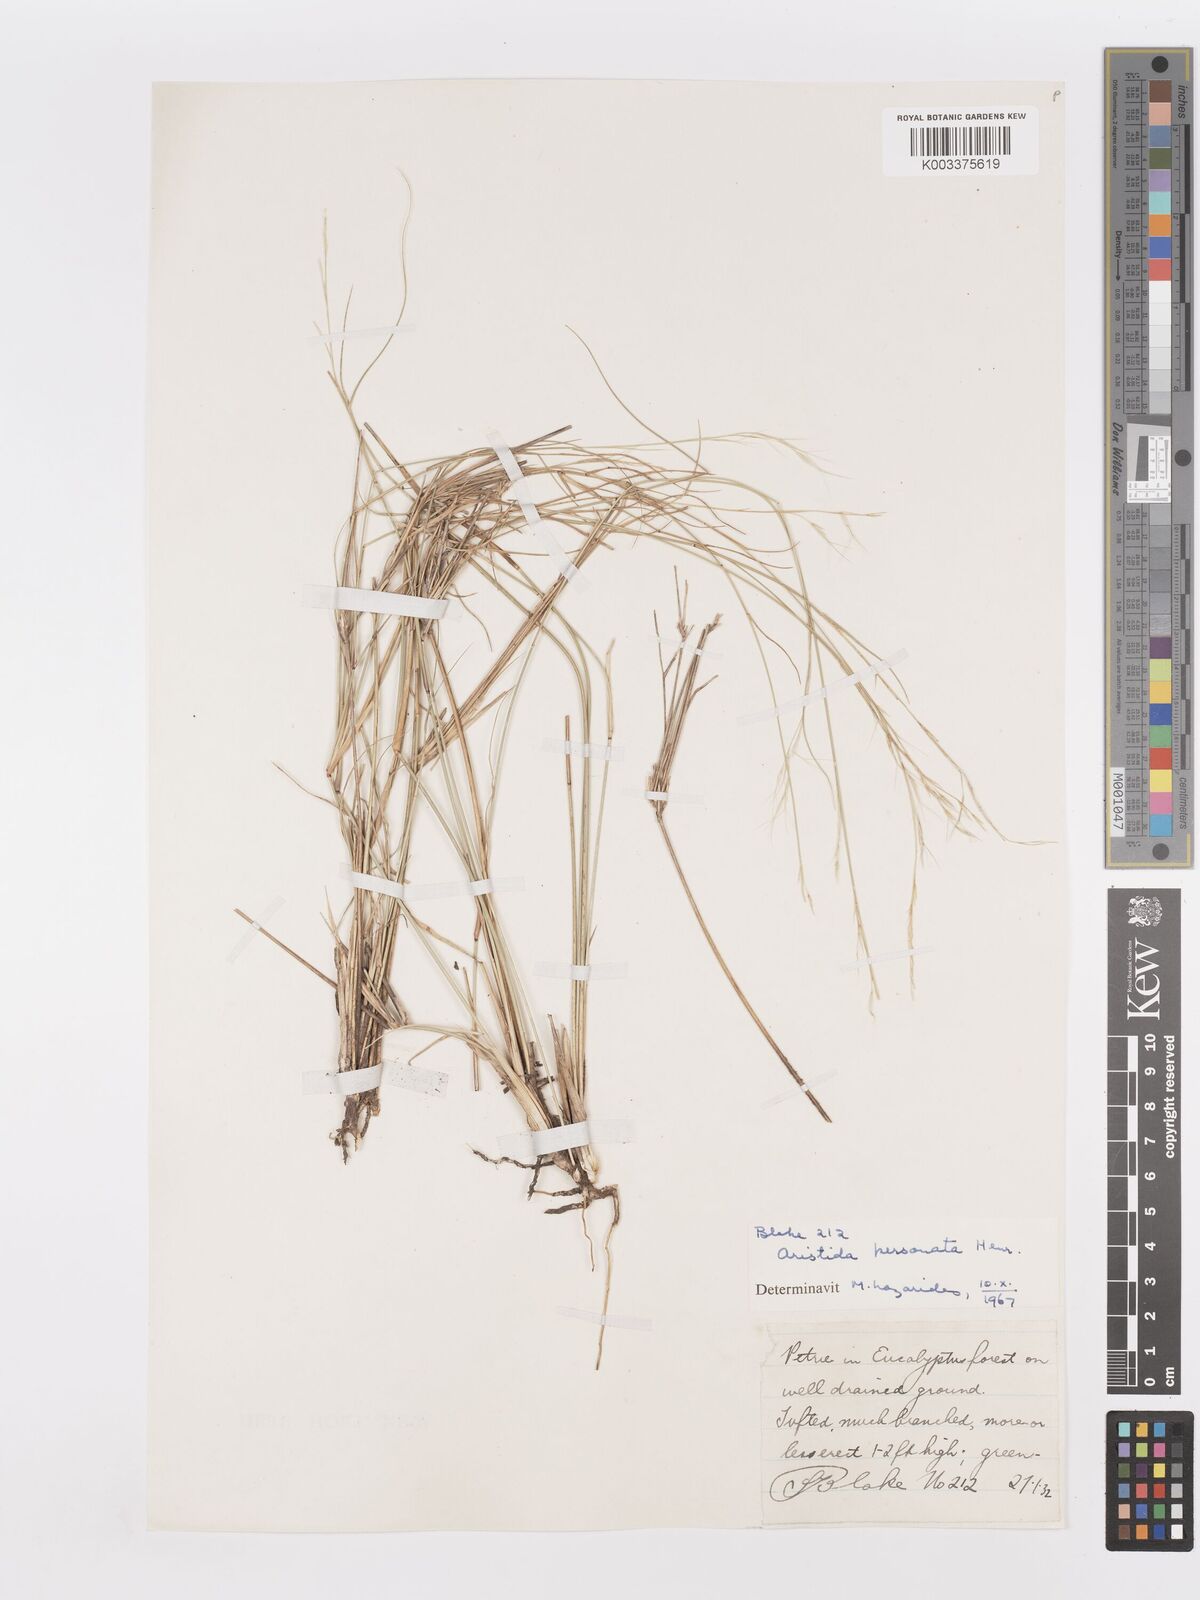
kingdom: Plantae
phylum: Tracheophyta
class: Liliopsida
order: Poales
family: Poaceae
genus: Aristida
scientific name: Aristida personata
